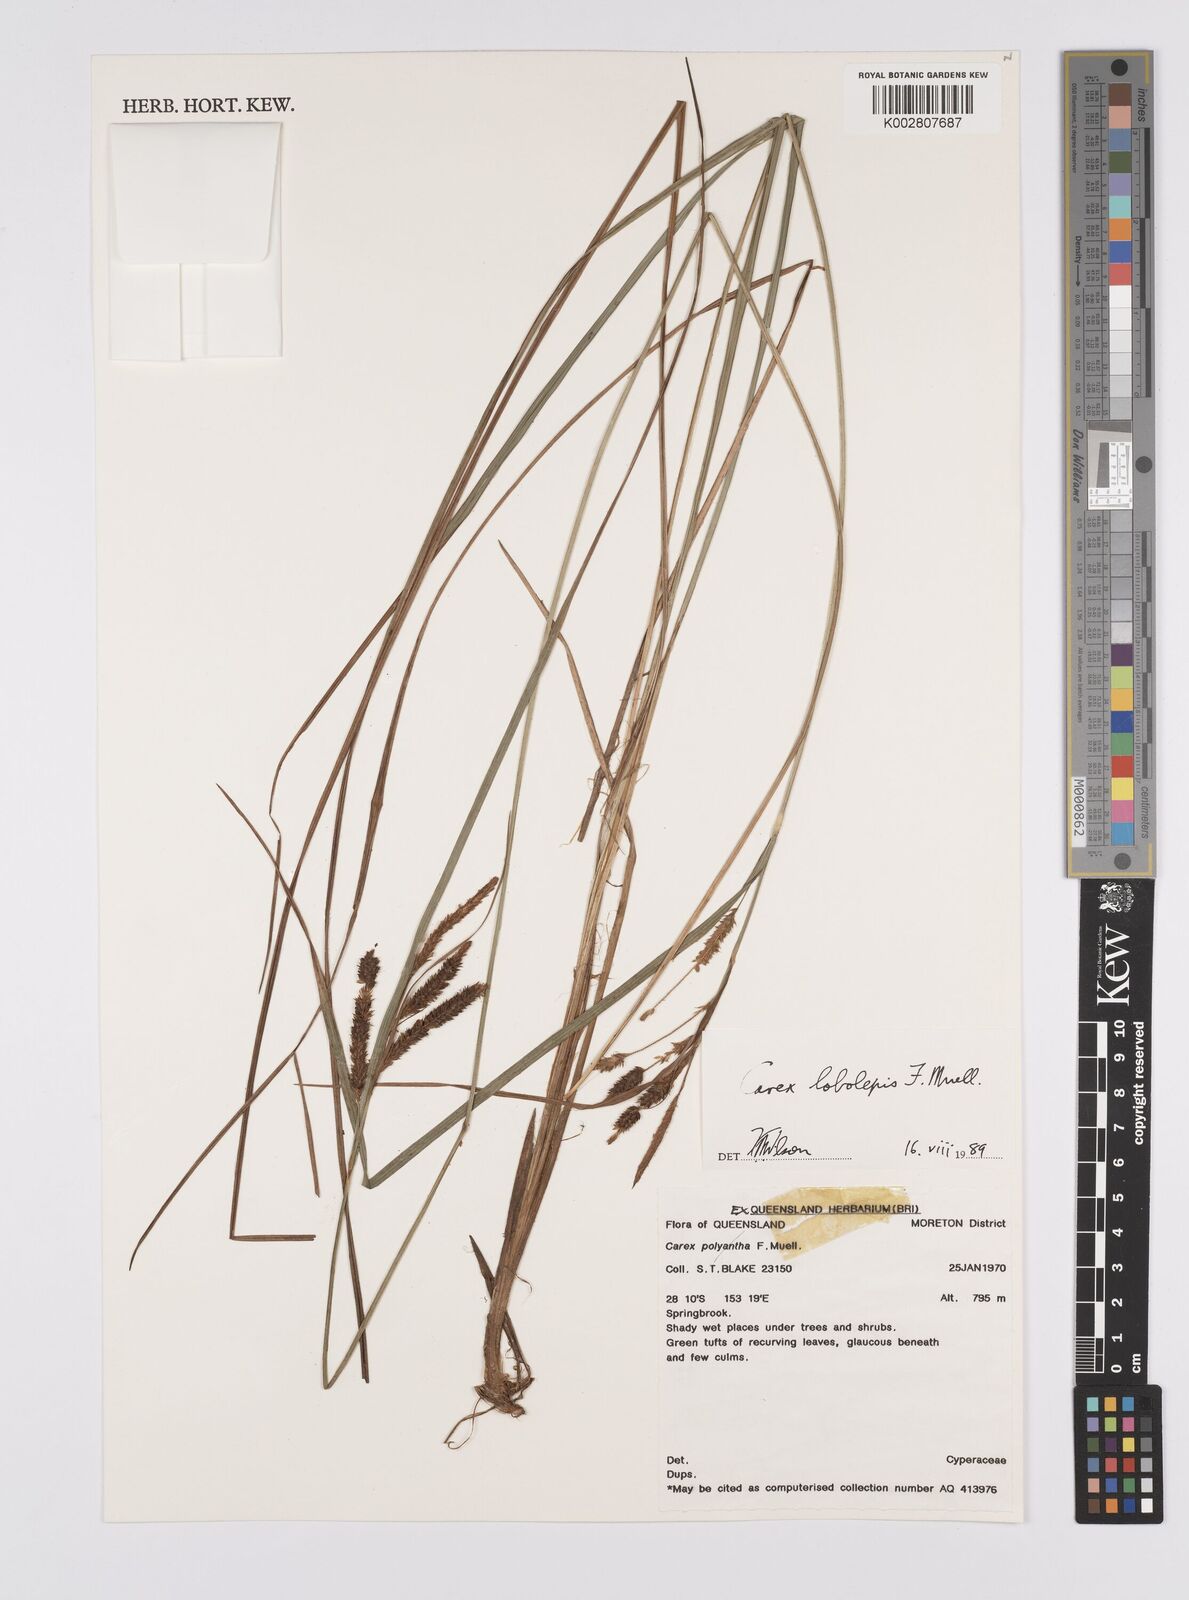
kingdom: Plantae
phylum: Tracheophyta
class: Liliopsida
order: Poales
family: Cyperaceae
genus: Carex
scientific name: Carex lobolepis
